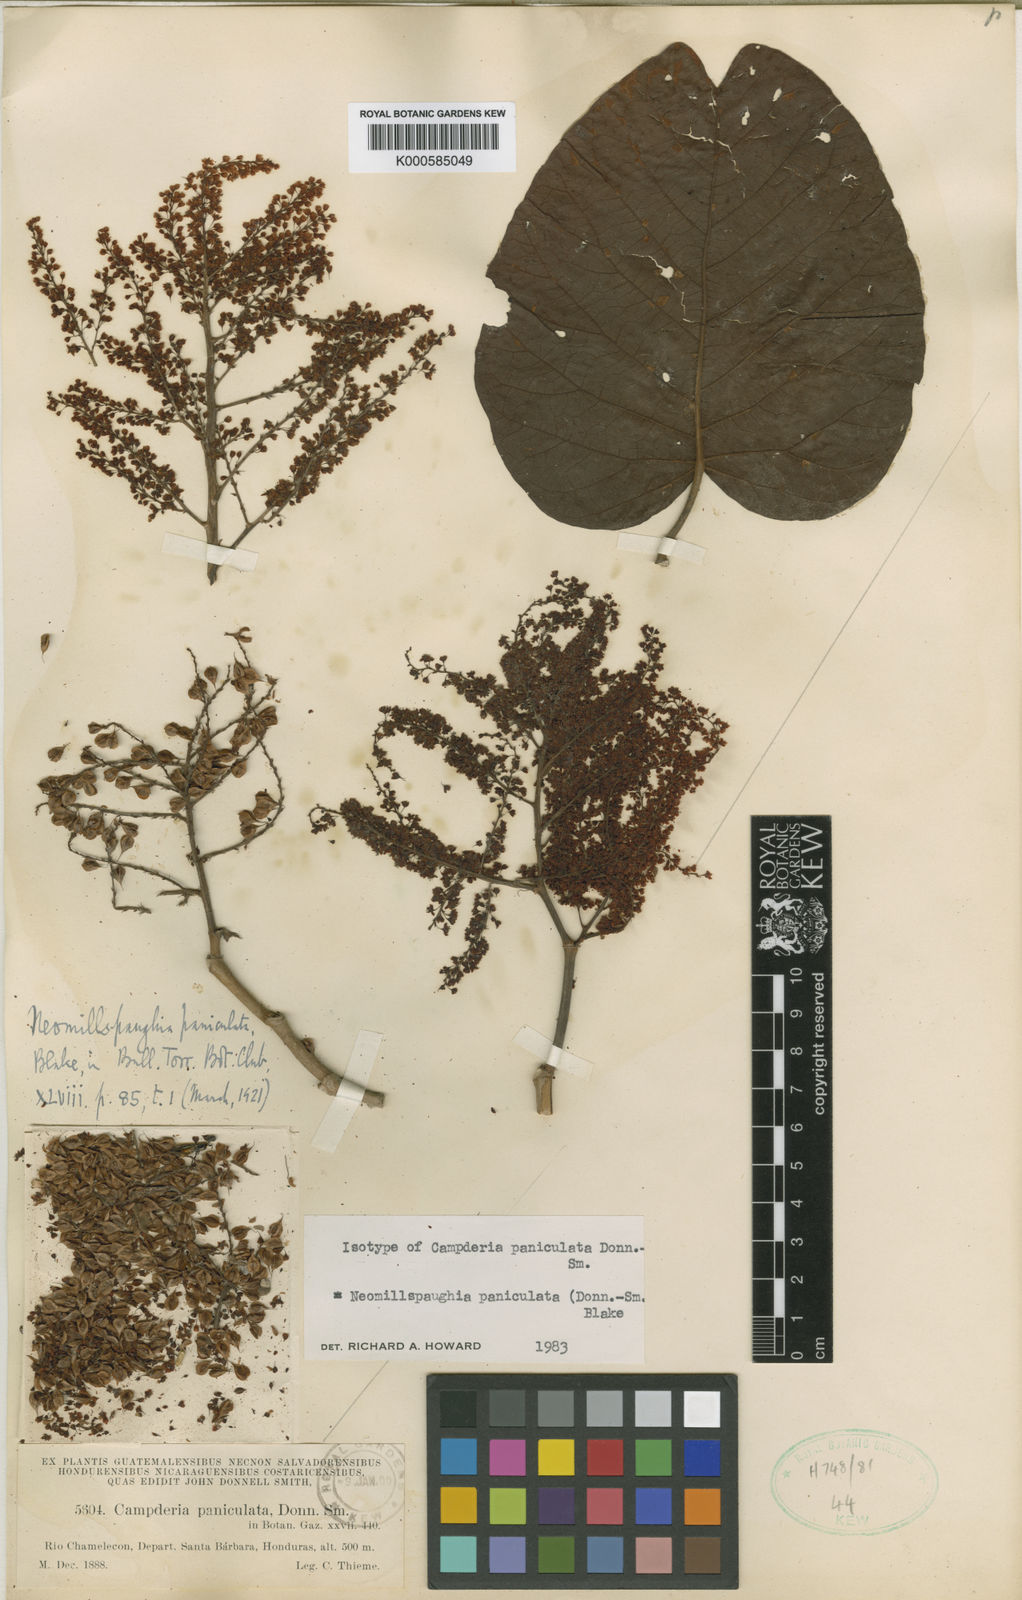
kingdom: Plantae
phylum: Tracheophyta
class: Magnoliopsida
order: Caryophyllales
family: Polygonaceae
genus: Neomillspaughia
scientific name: Neomillspaughia paniculata
